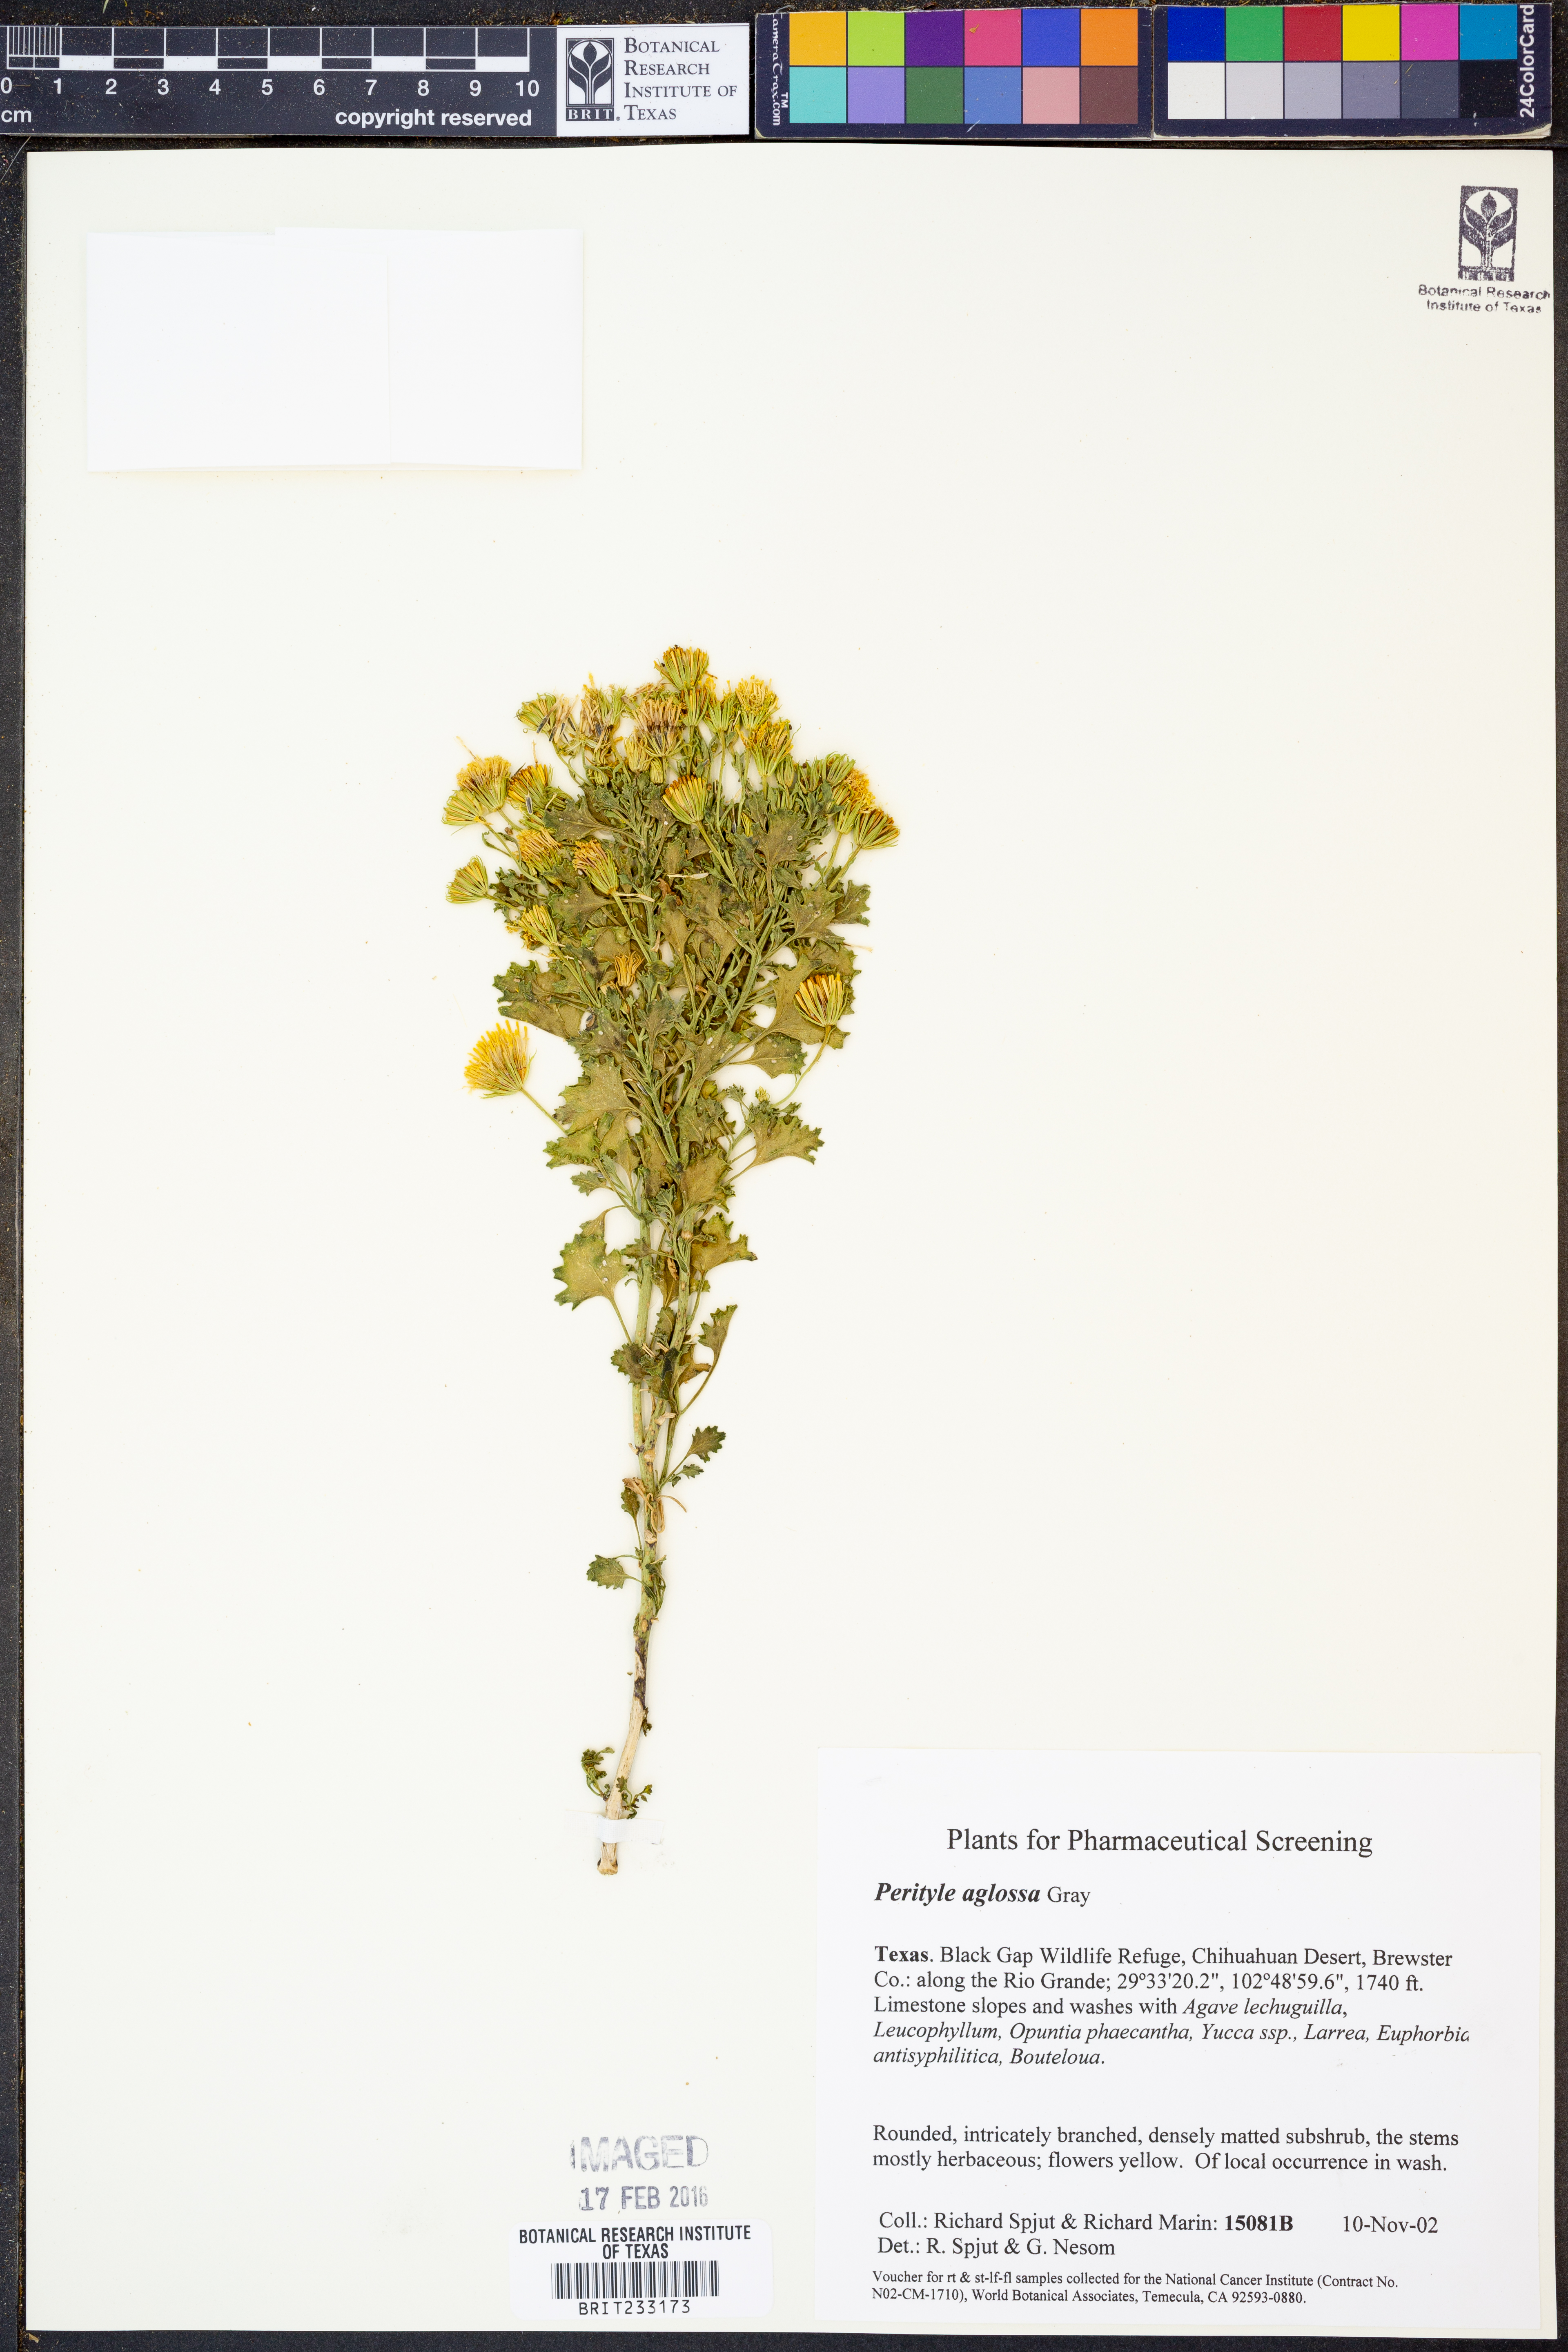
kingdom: Plantae
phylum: Tracheophyta
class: Magnoliopsida
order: Asterales
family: Asteraceae
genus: Laphamia
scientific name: Laphamia aglossa
